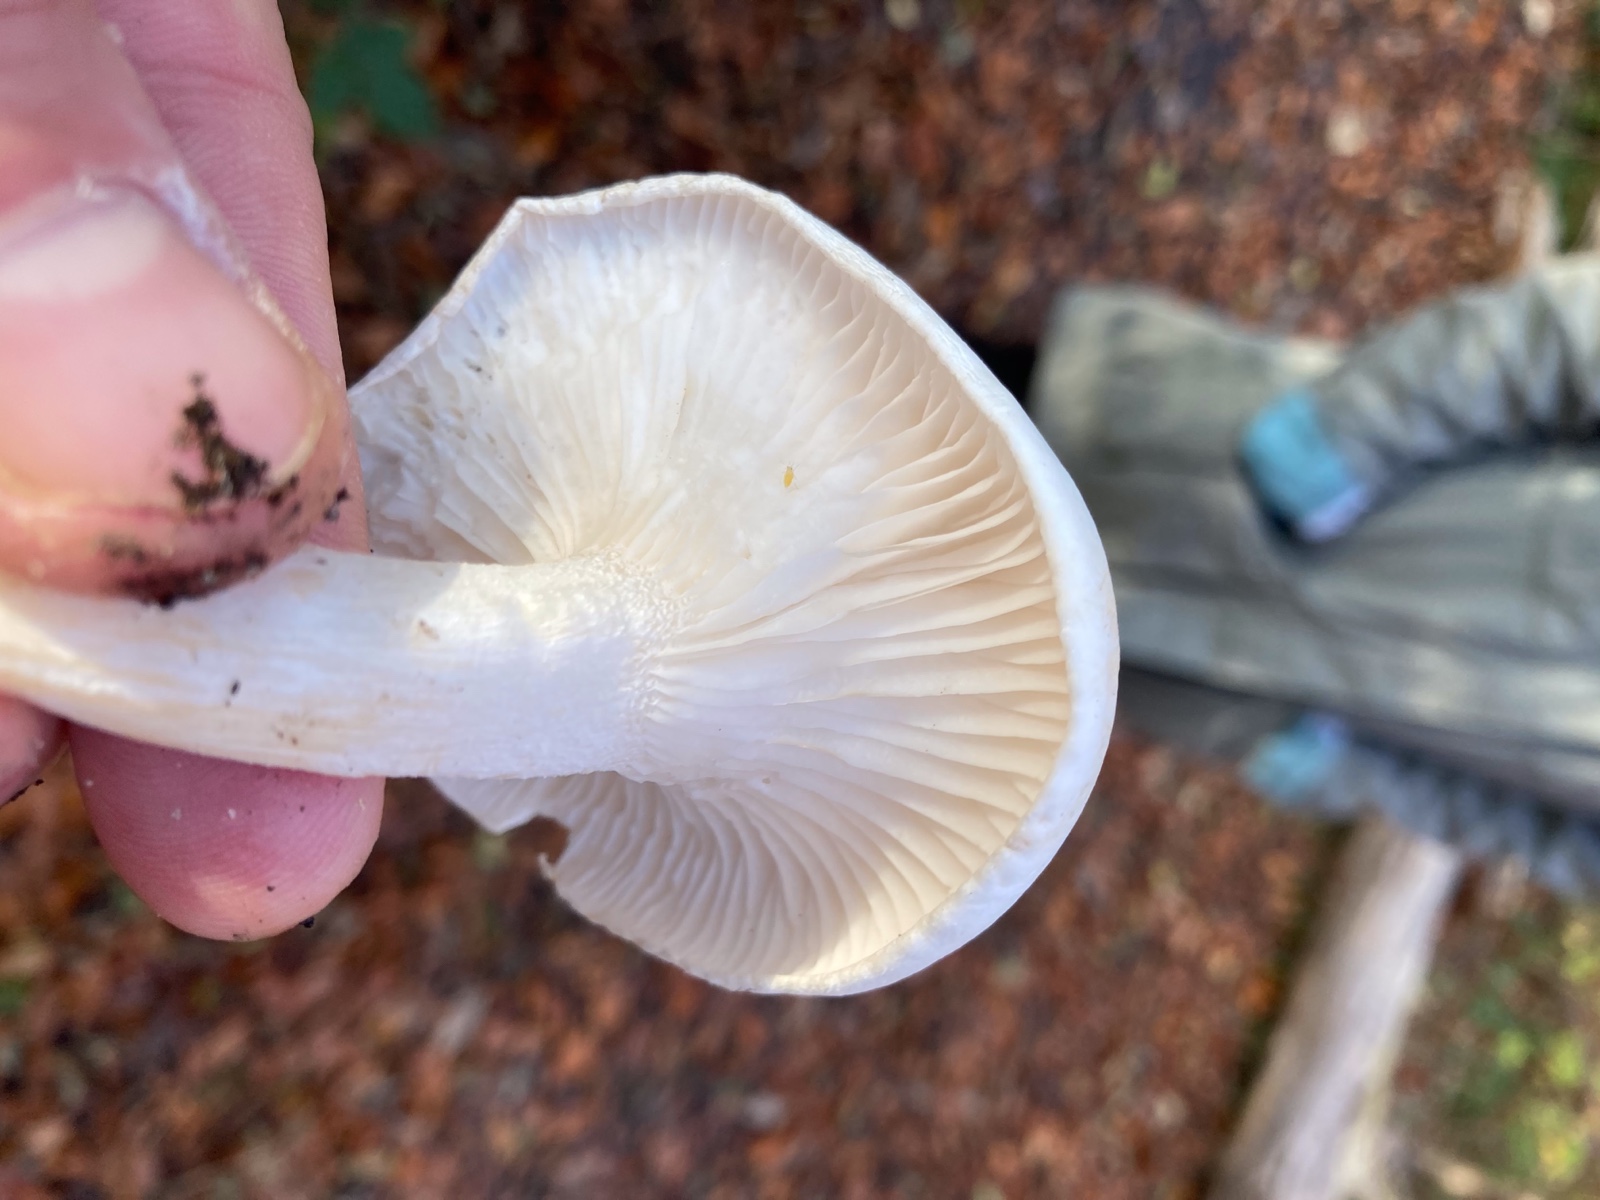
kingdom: Fungi
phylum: Basidiomycota
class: Agaricomycetes
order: Agaricales
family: Hygrophoraceae
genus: Hygrophorus
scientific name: Hygrophorus eburneus
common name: elfenbens-sneglehat
